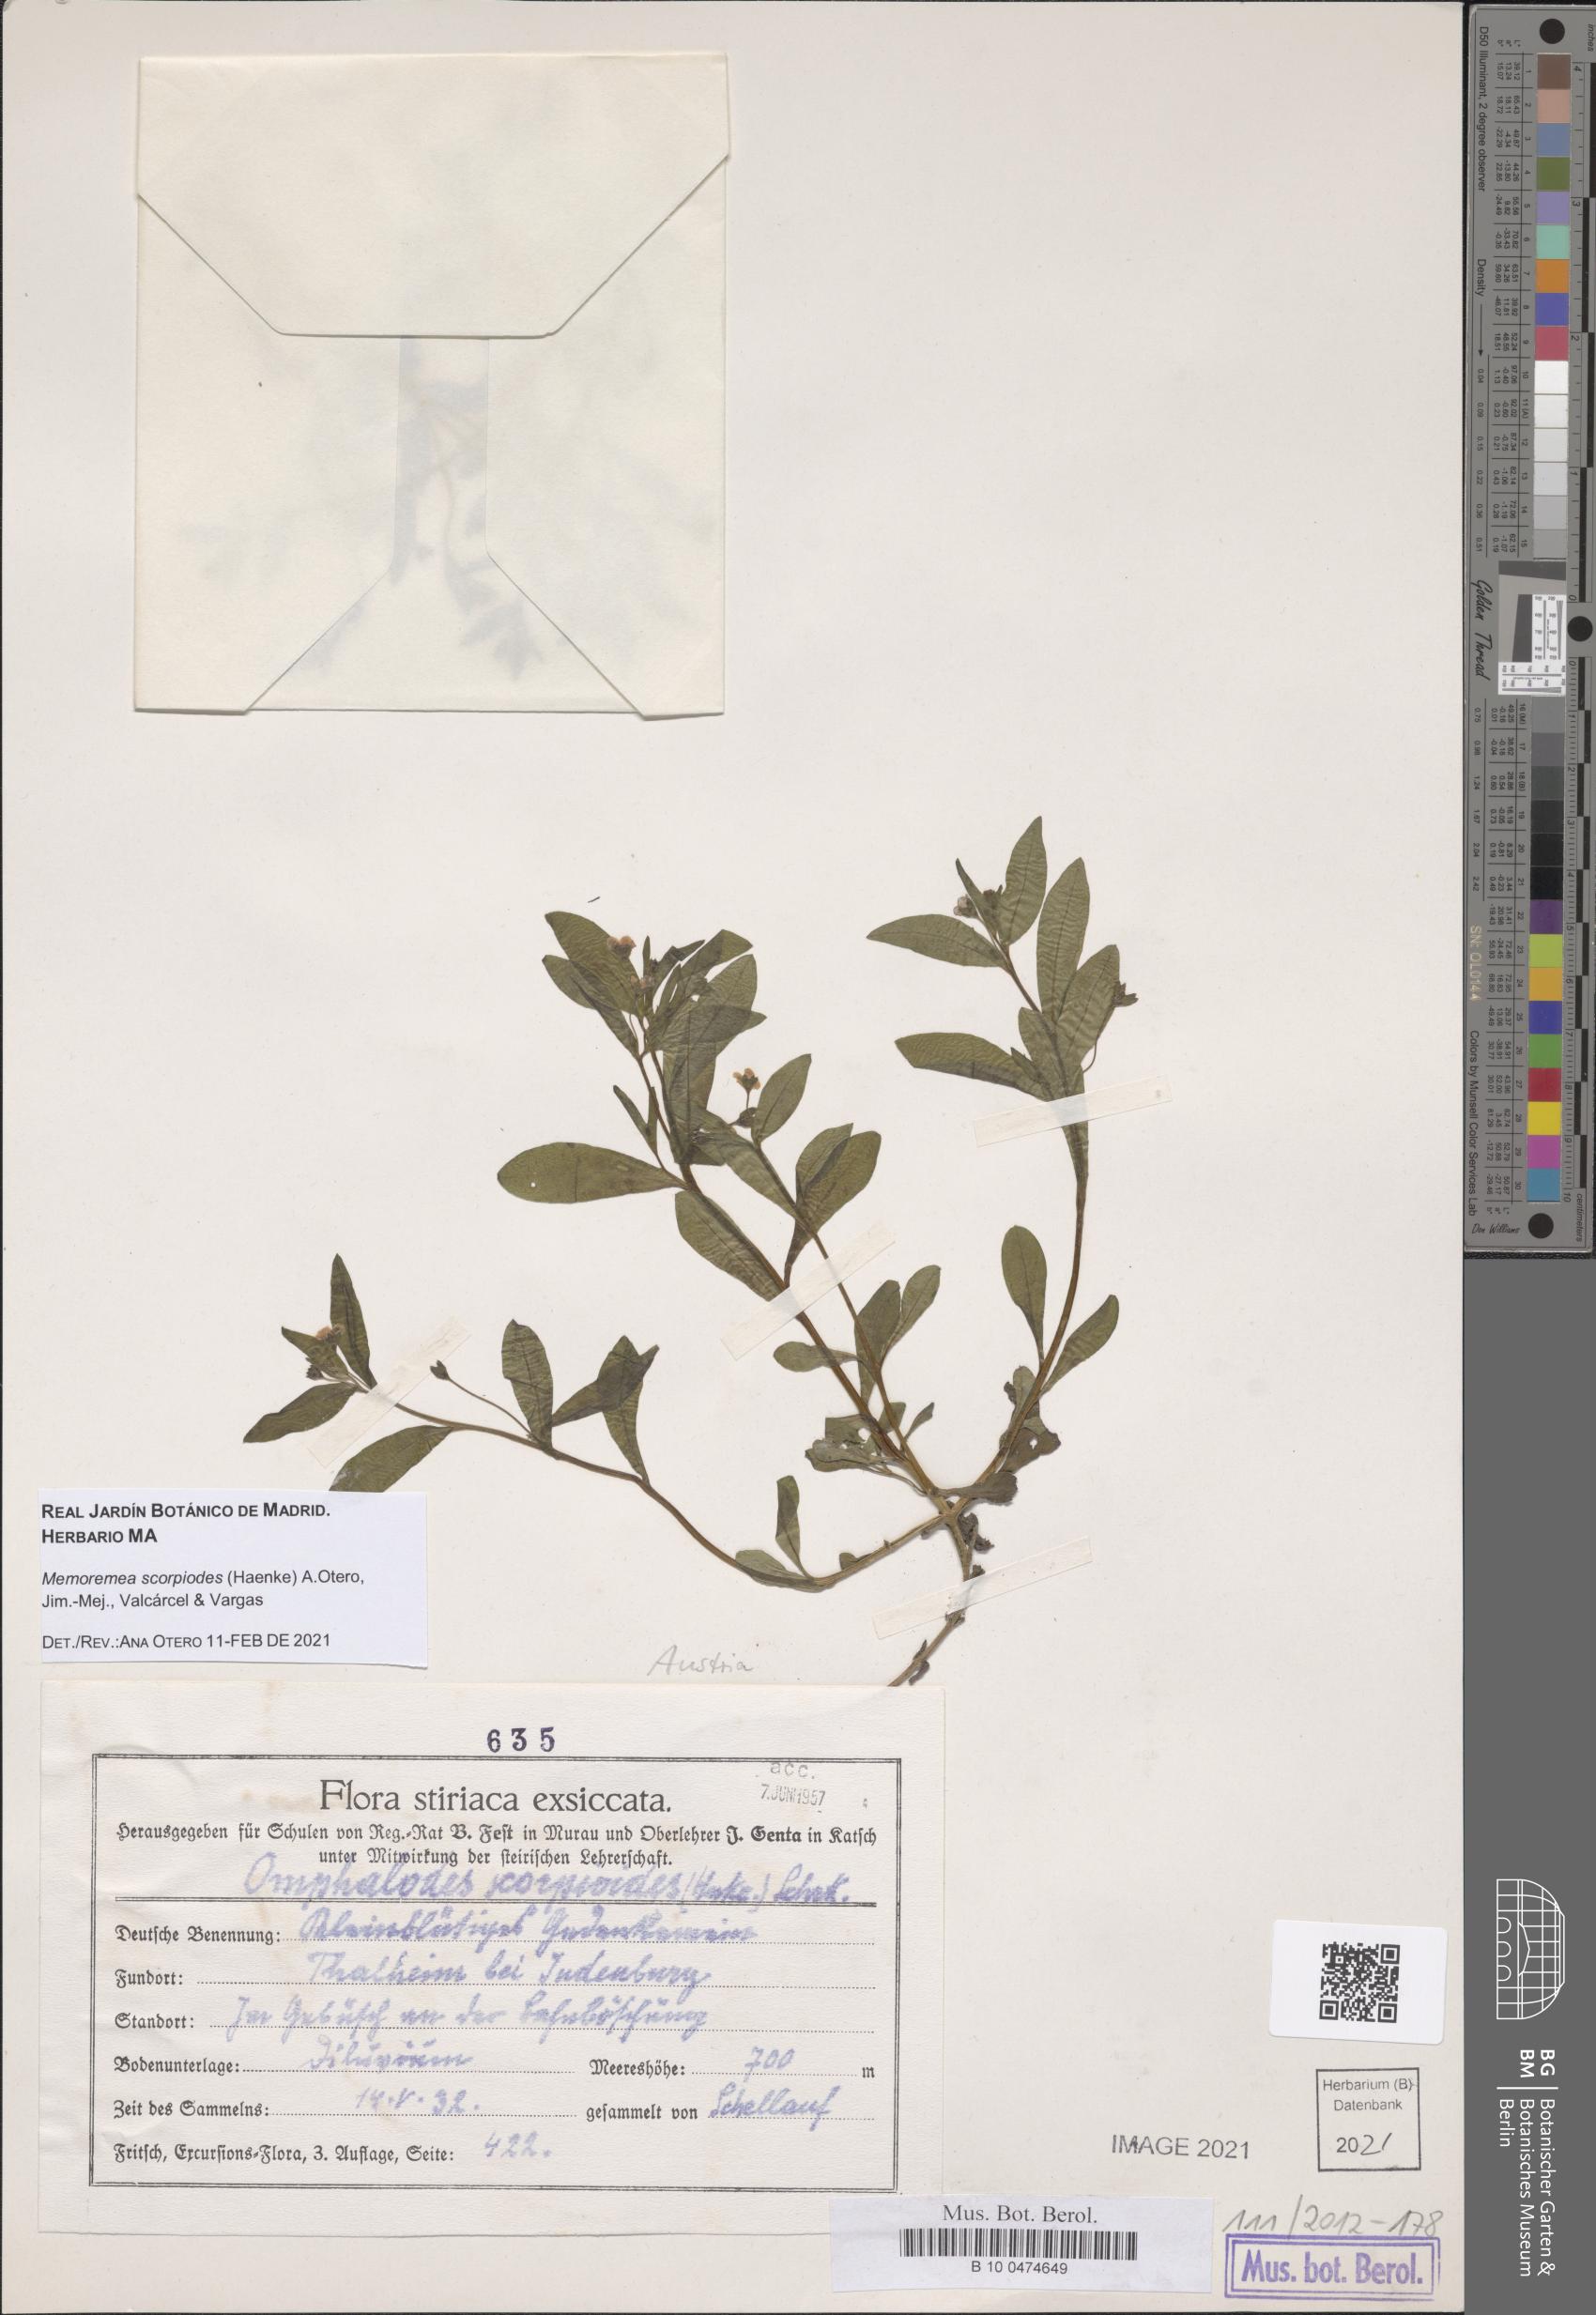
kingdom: Plantae
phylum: Tracheophyta
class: Magnoliopsida
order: Boraginales
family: Boraginaceae
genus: Memoremea
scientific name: Memoremea scorpioides
